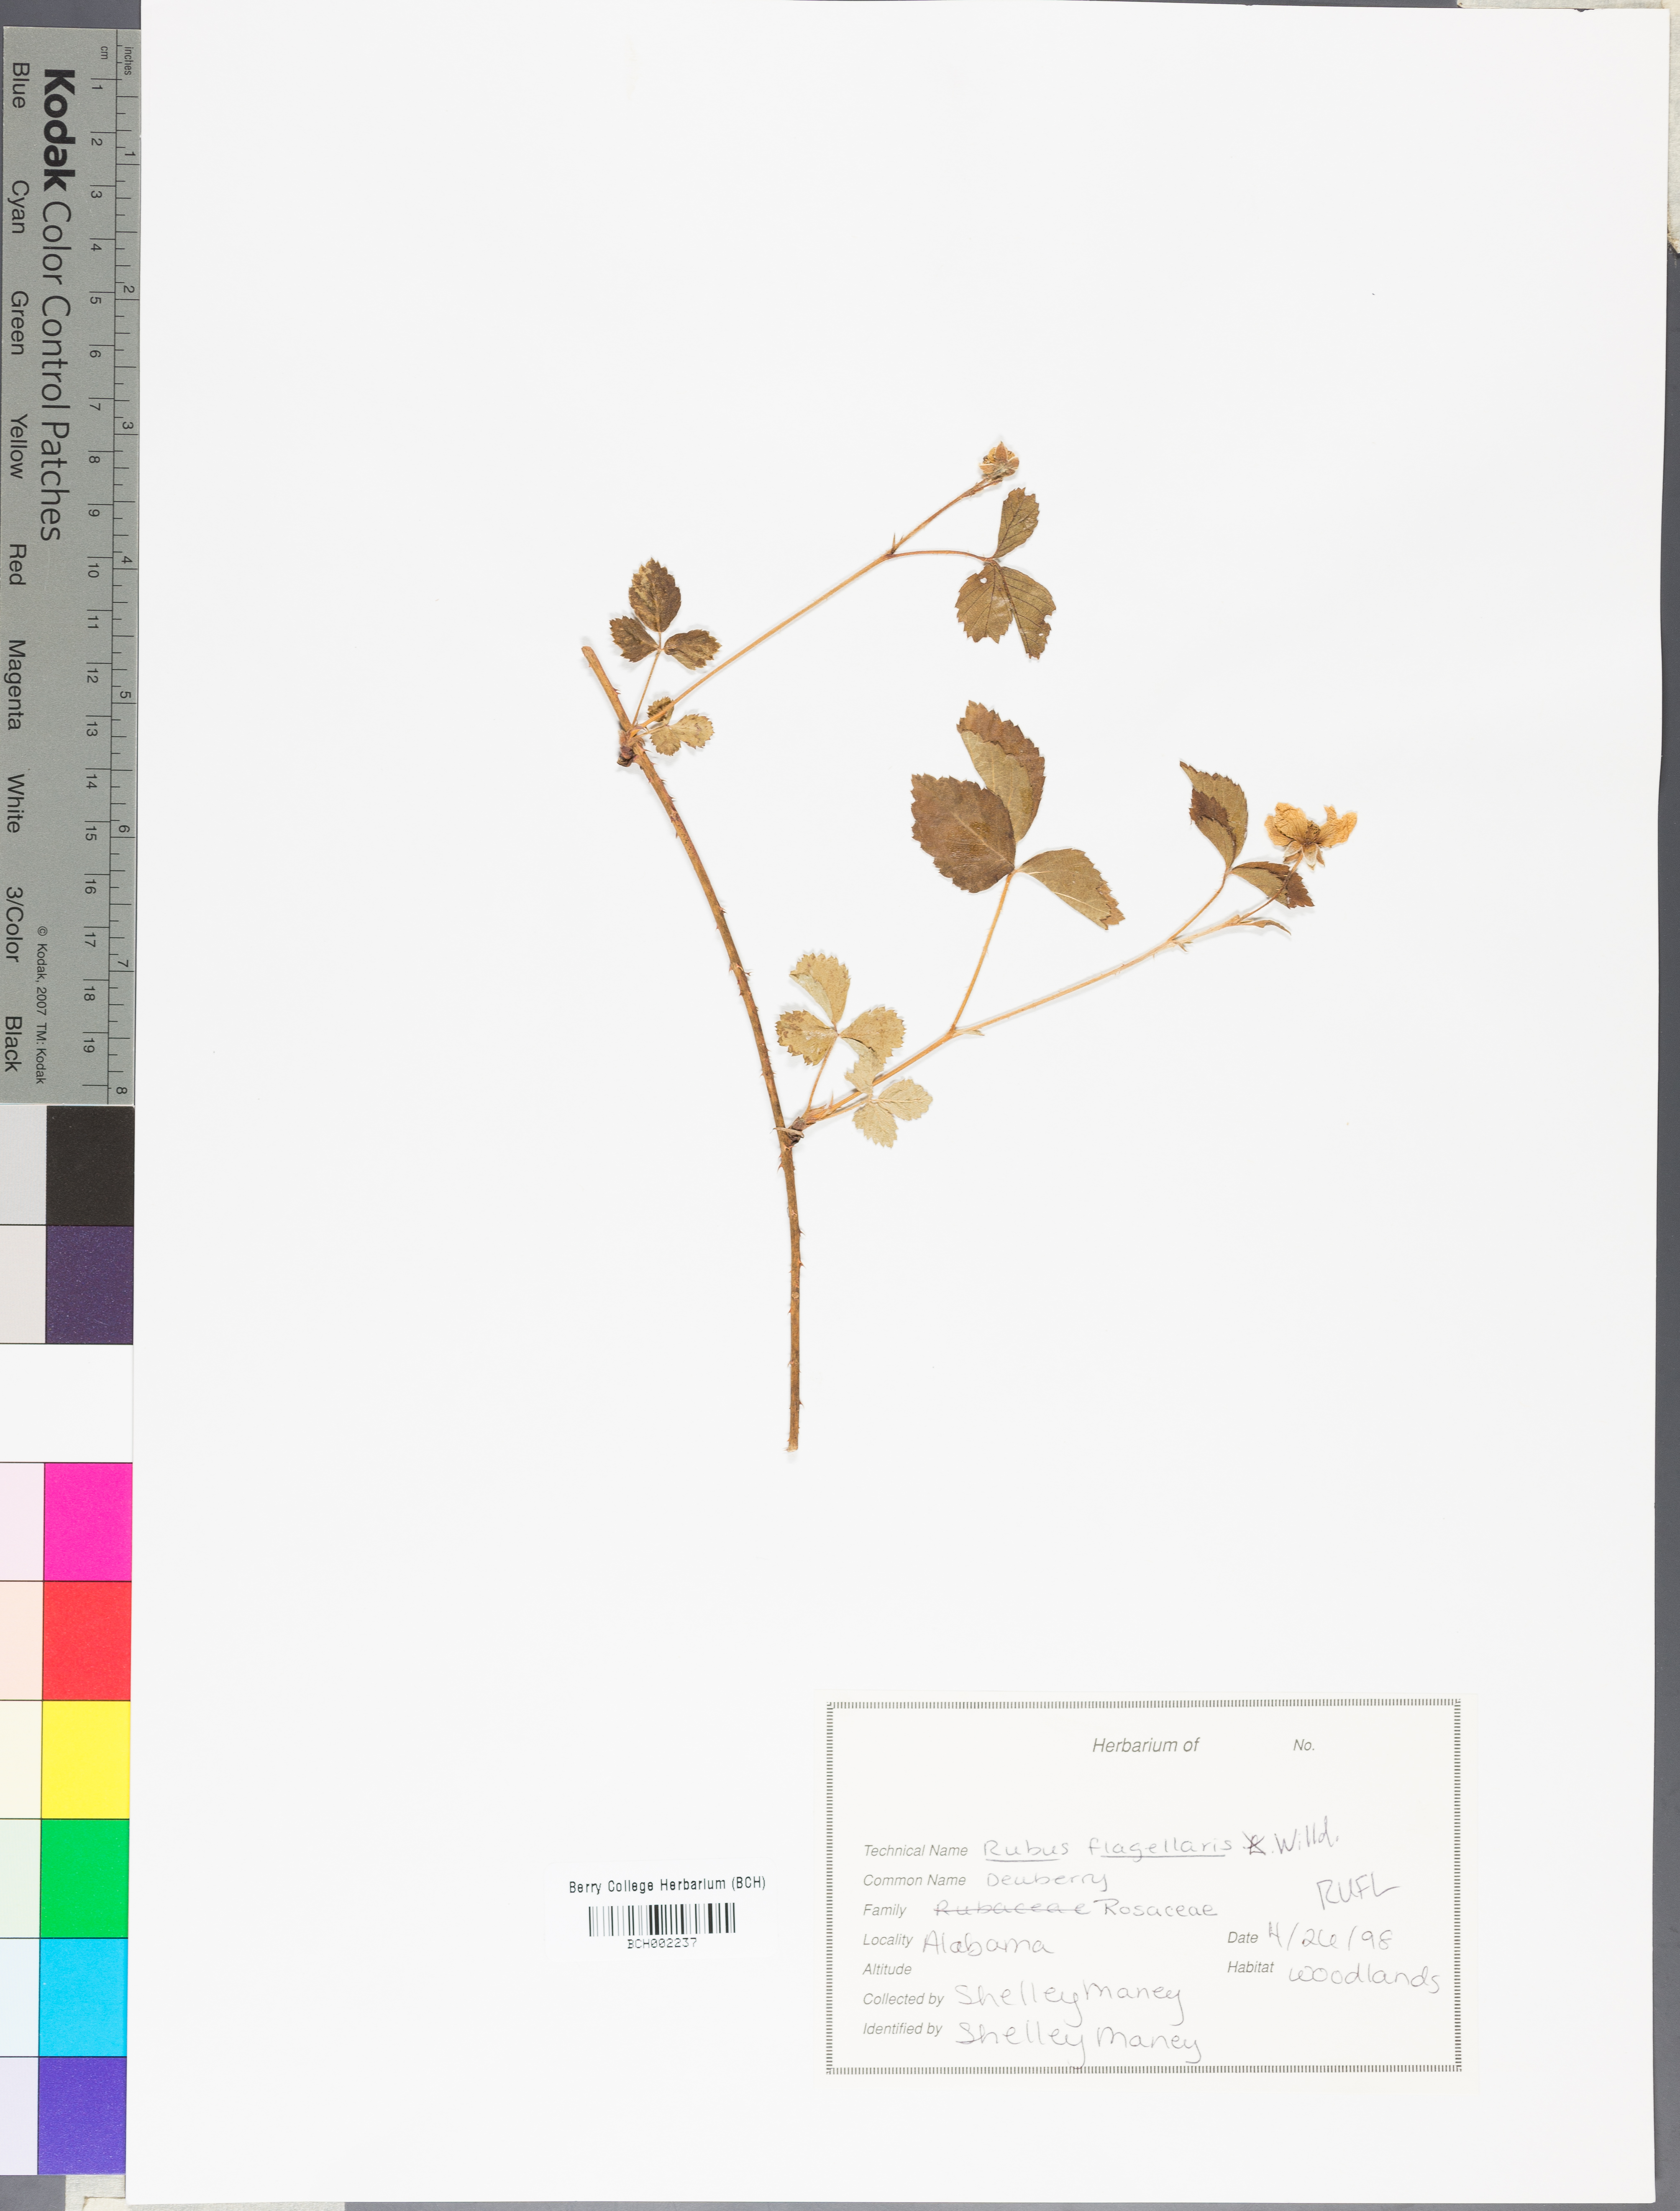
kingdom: Plantae
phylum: Tracheophyta
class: Magnoliopsida
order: Rosales
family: Rosaceae
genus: Rubus
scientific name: Rubus flagellaris
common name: American dewberry
